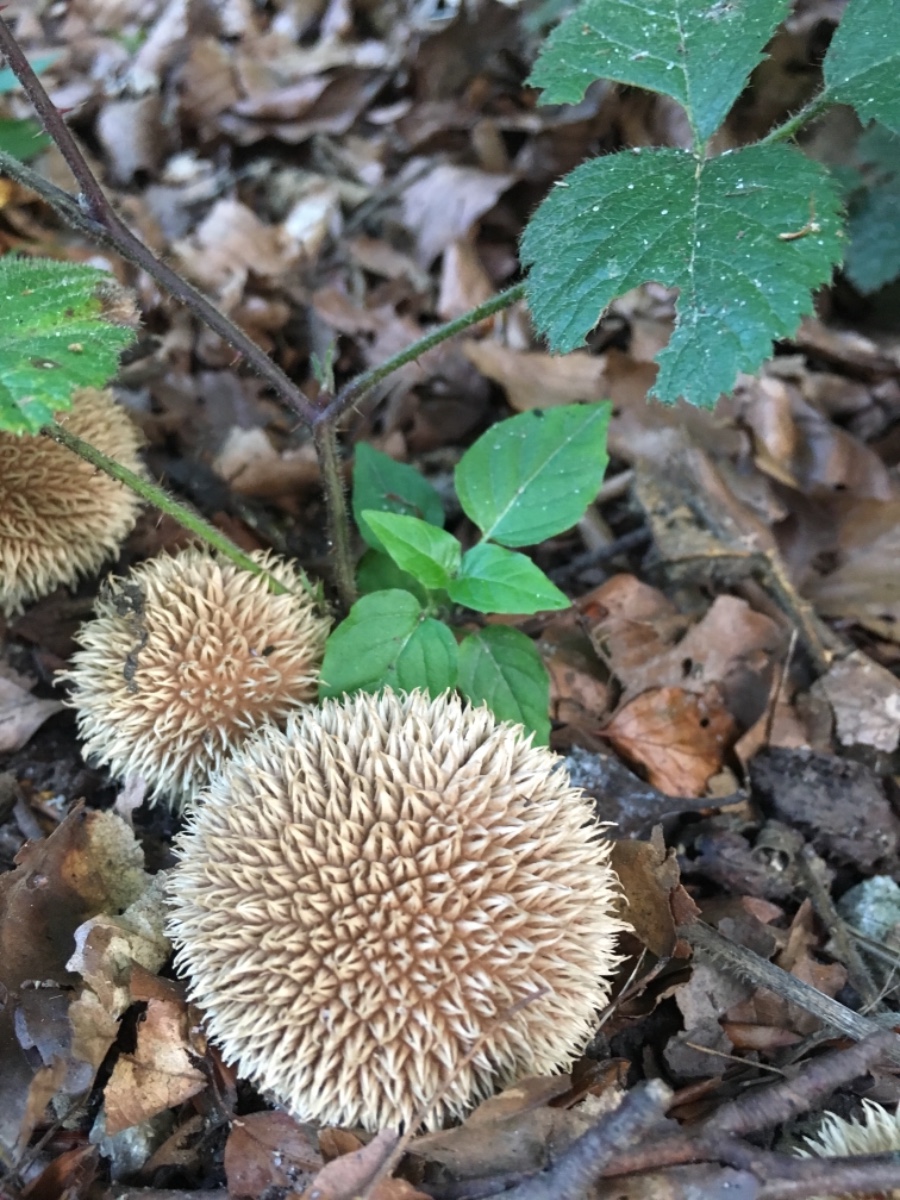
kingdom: Fungi
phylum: Basidiomycota
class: Agaricomycetes
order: Agaricales
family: Lycoperdaceae
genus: Lycoperdon
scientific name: Lycoperdon echinatum
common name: pindsvine-støvbold
